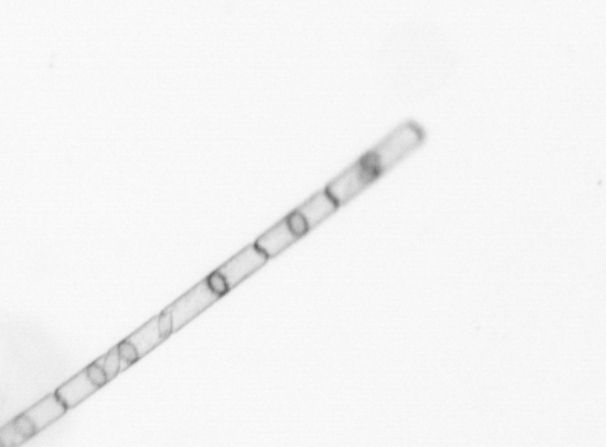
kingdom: Chromista
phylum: Ochrophyta
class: Bacillariophyceae
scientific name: Bacillariophyceae
